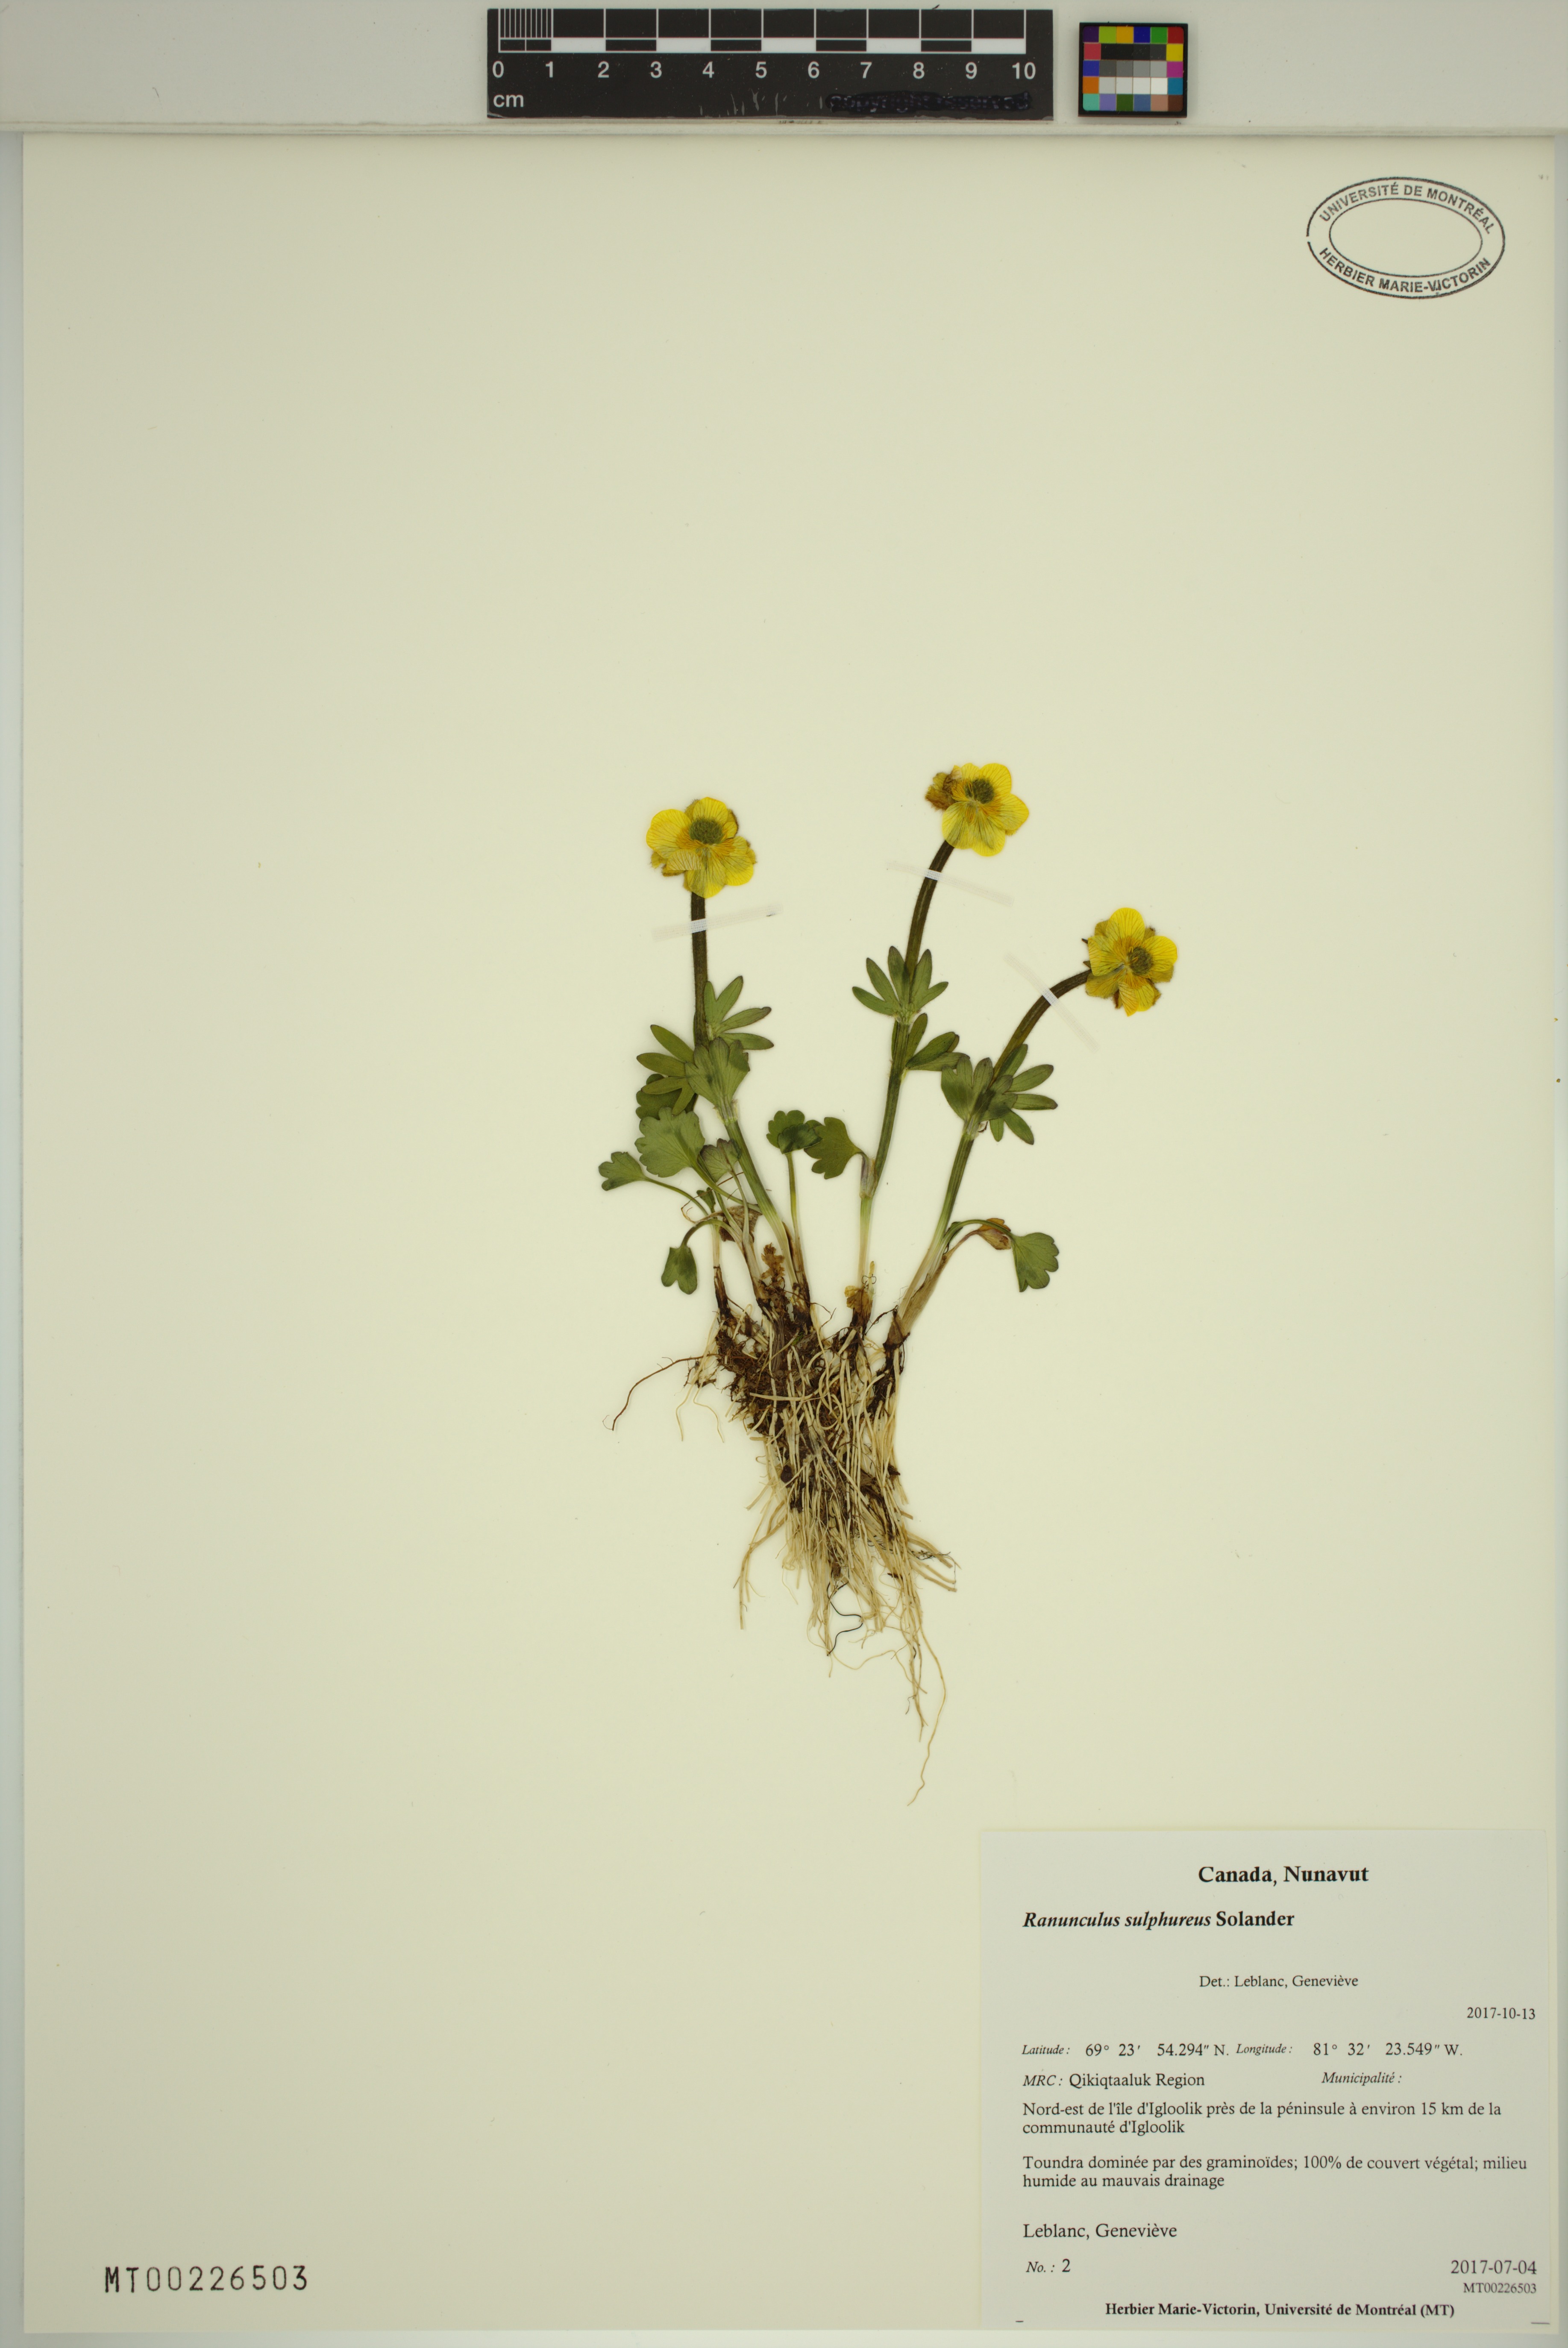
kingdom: Plantae
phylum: Tracheophyta
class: Magnoliopsida
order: Ranunculales
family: Ranunculaceae
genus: Ranunculus
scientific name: Ranunculus sulphureus
